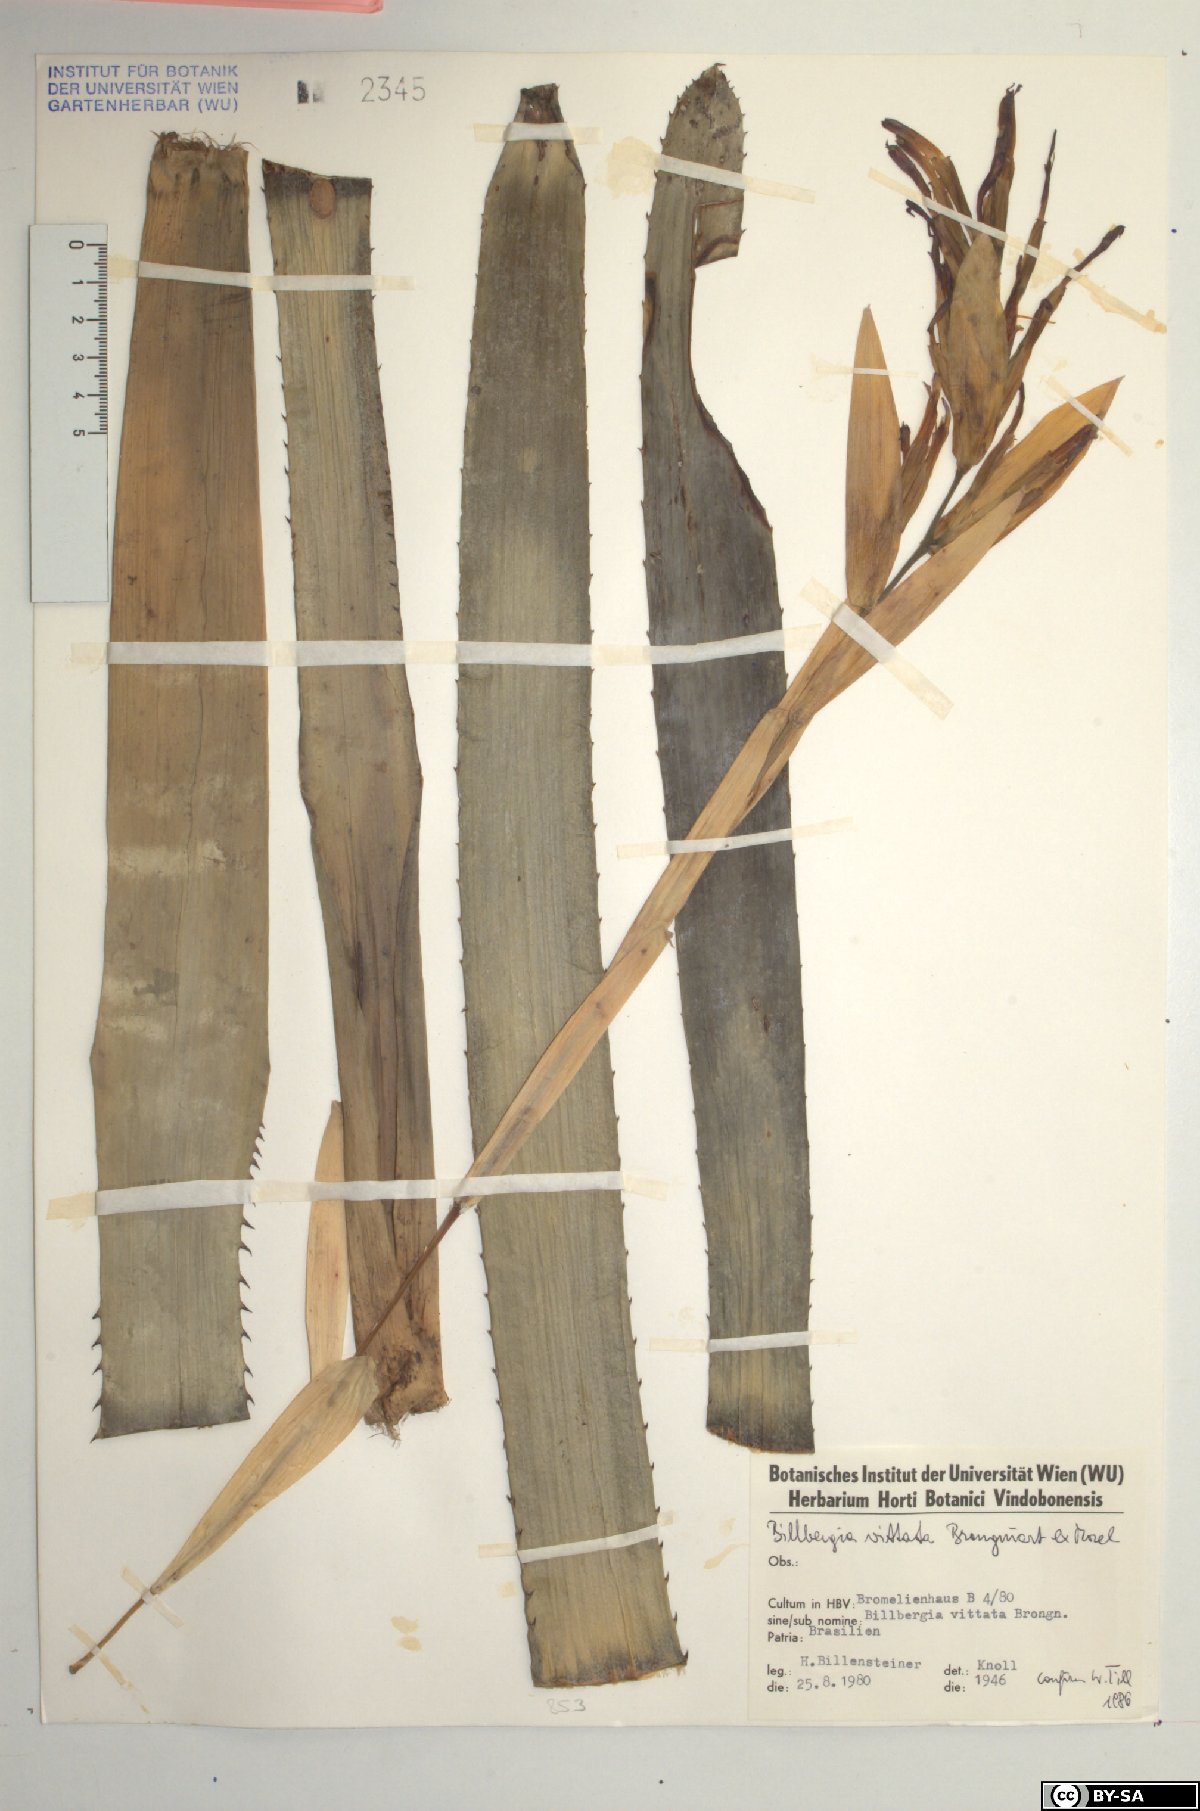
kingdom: Plantae
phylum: Tracheophyta
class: Liliopsida
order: Poales
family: Bromeliaceae
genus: Billbergia
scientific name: Billbergia vittata
